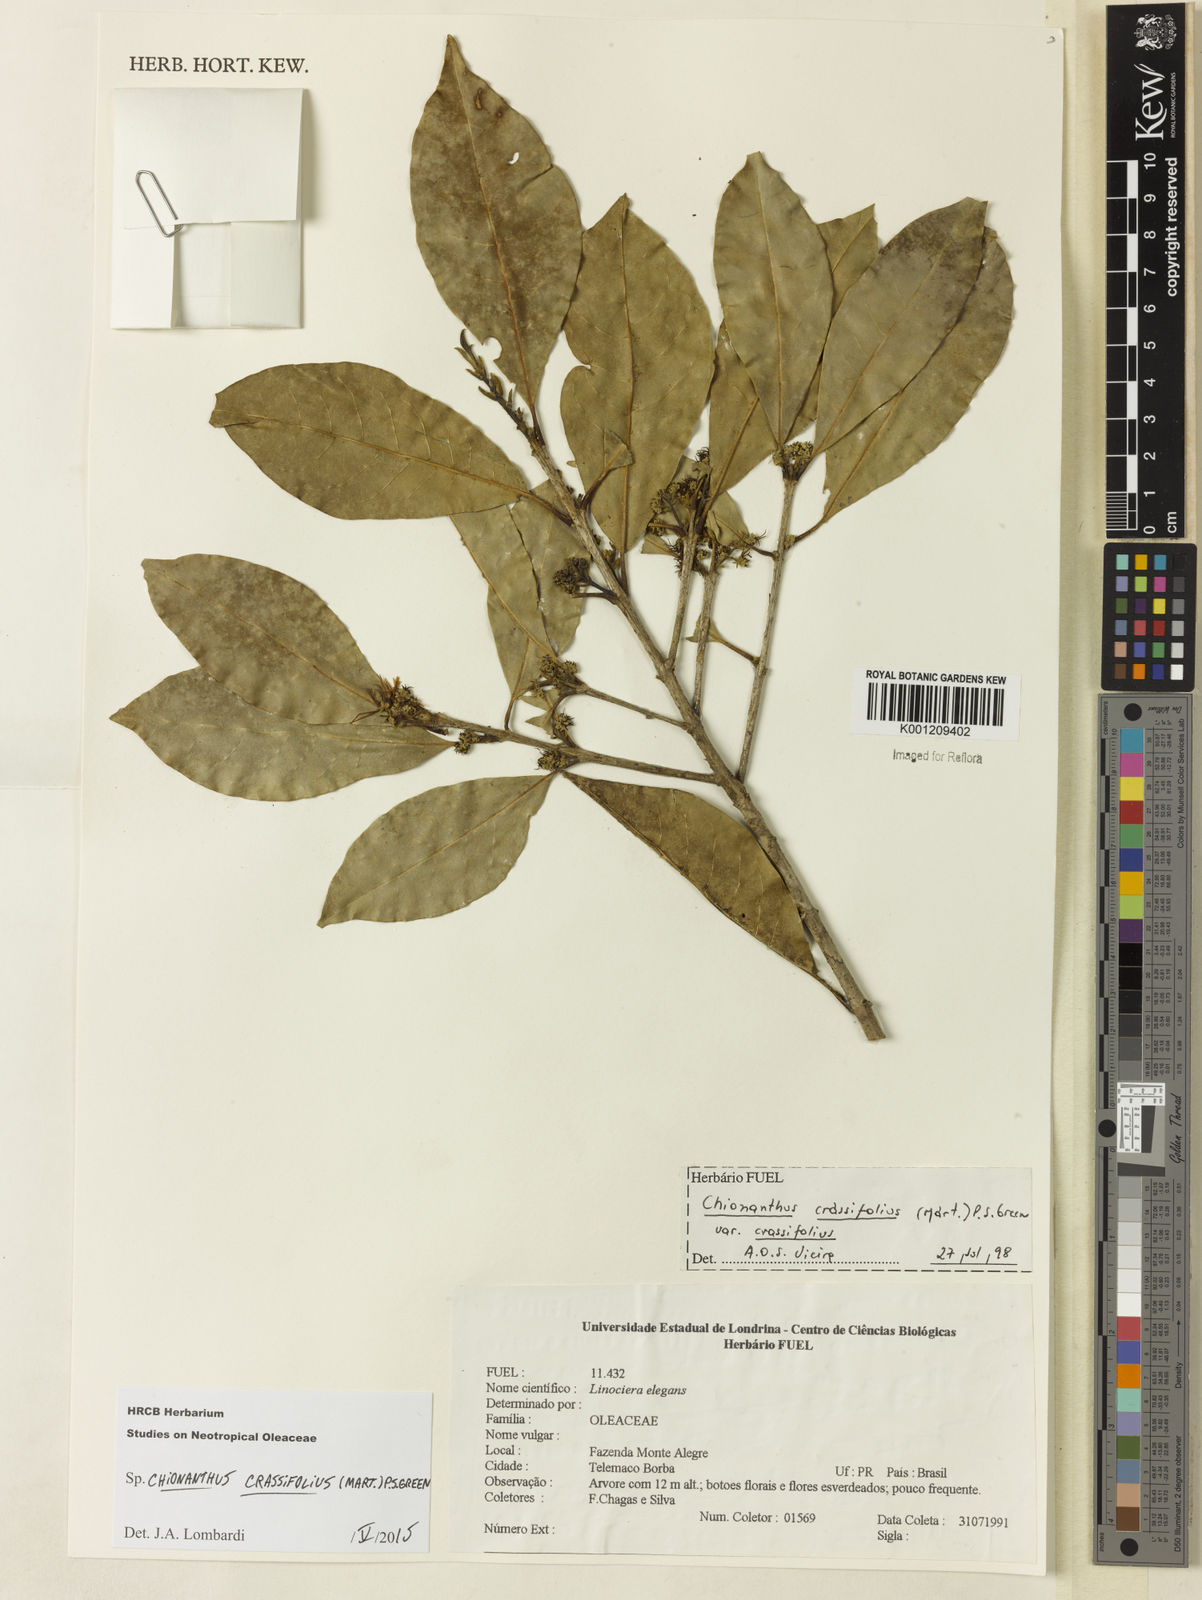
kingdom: Plantae
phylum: Tracheophyta
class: Magnoliopsida
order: Lamiales
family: Oleaceae
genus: Chionanthus
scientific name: Chionanthus crassifolius
